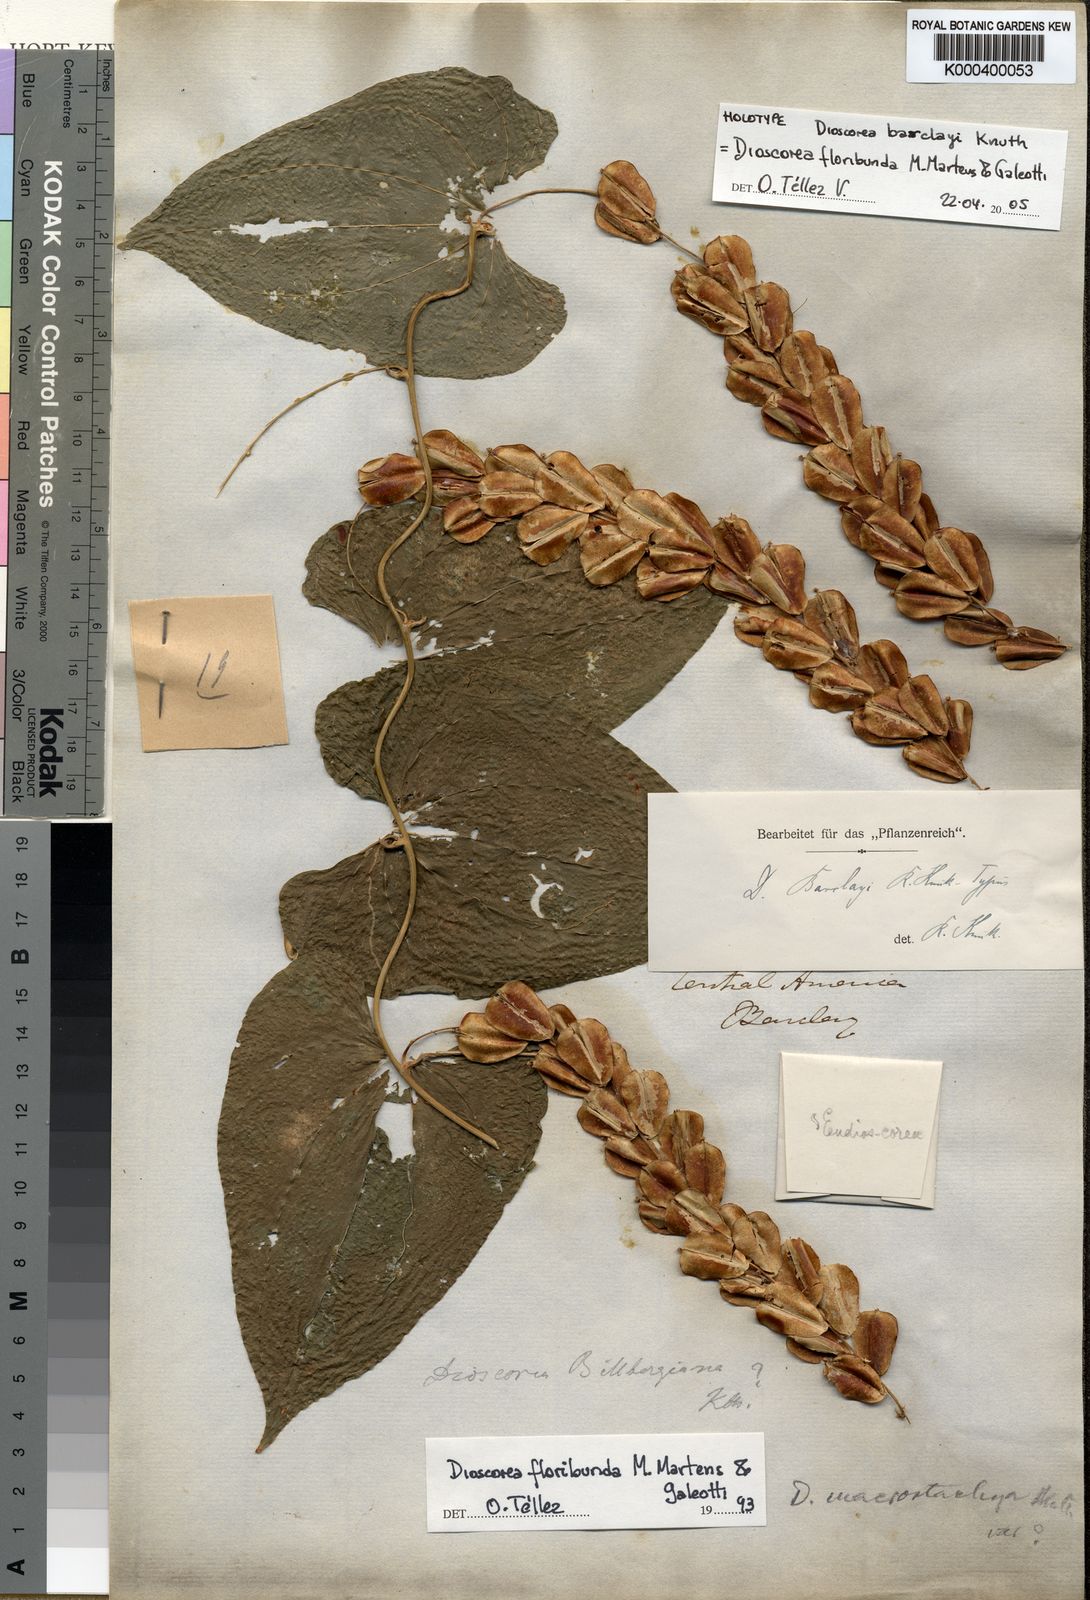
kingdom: Plantae
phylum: Tracheophyta
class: Liliopsida
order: Dioscoreales
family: Dioscoreaceae
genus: Dioscorea
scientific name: Dioscorea floribunda
